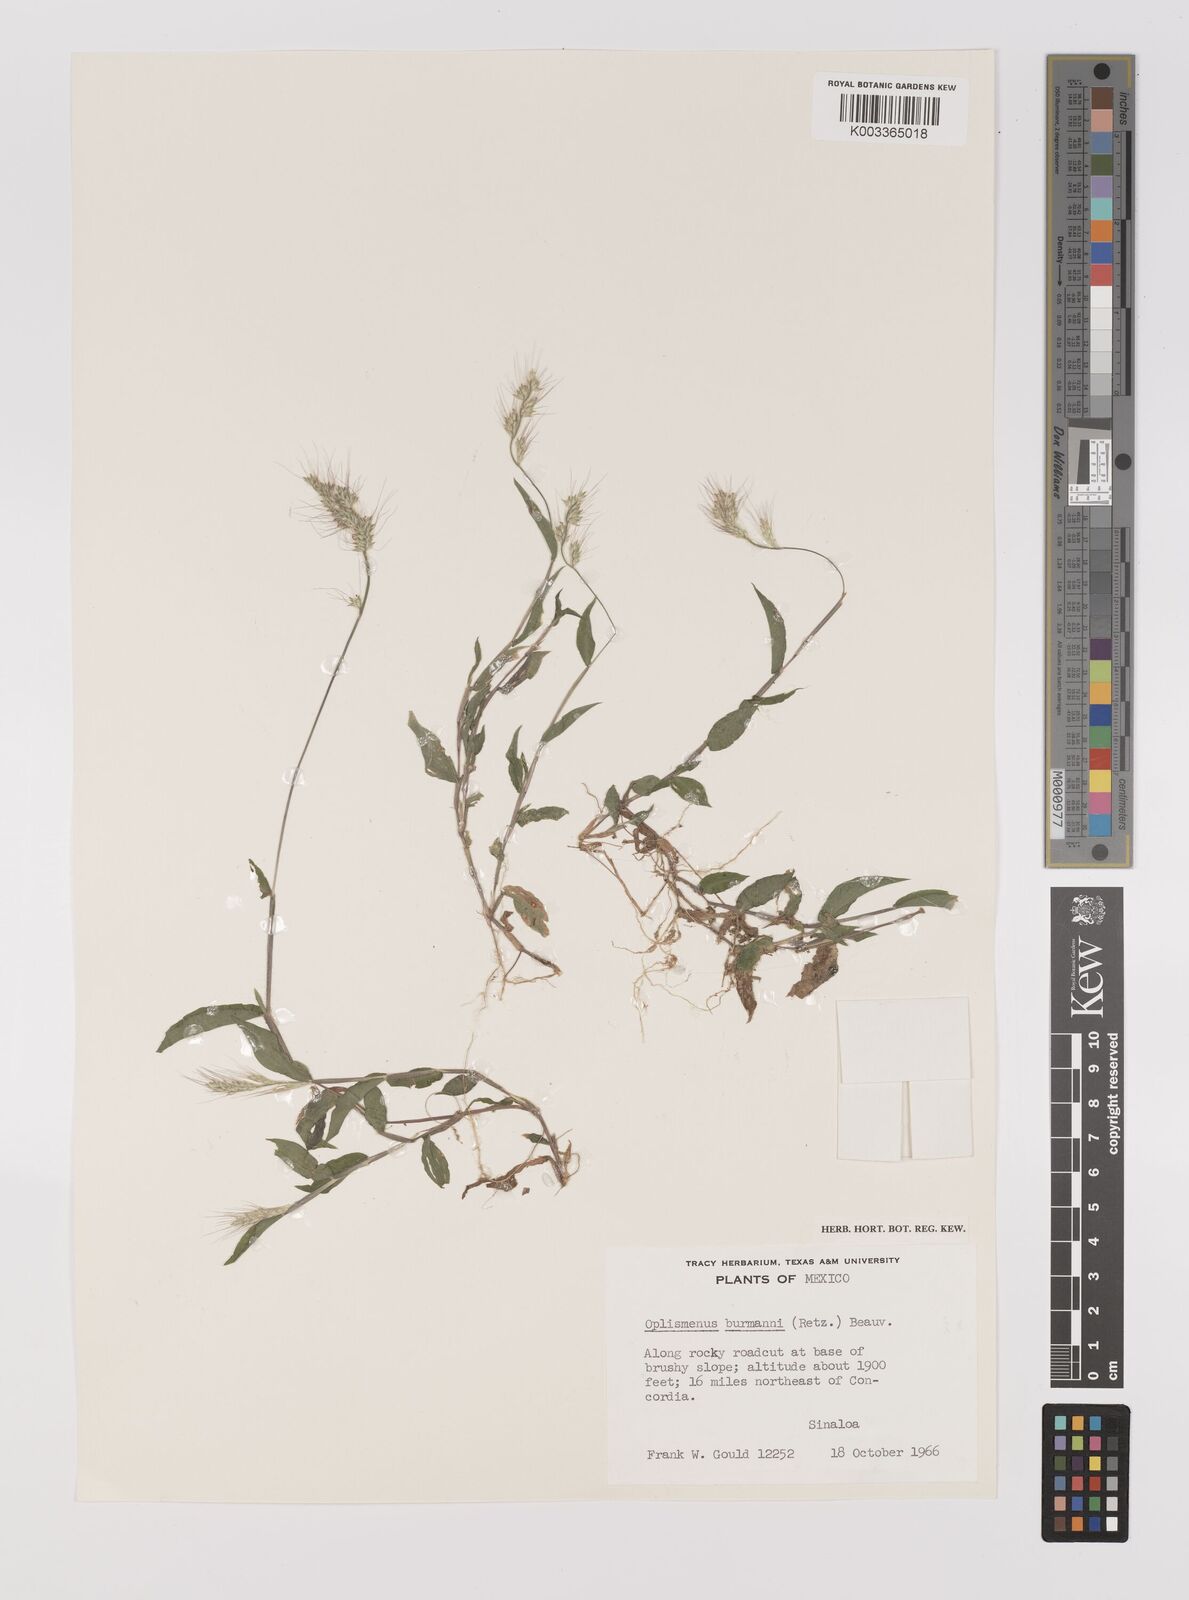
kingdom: Plantae
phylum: Tracheophyta
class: Liliopsida
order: Poales
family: Poaceae
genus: Oplismenus
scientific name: Oplismenus burmanni
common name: Burmann's basketgrass
